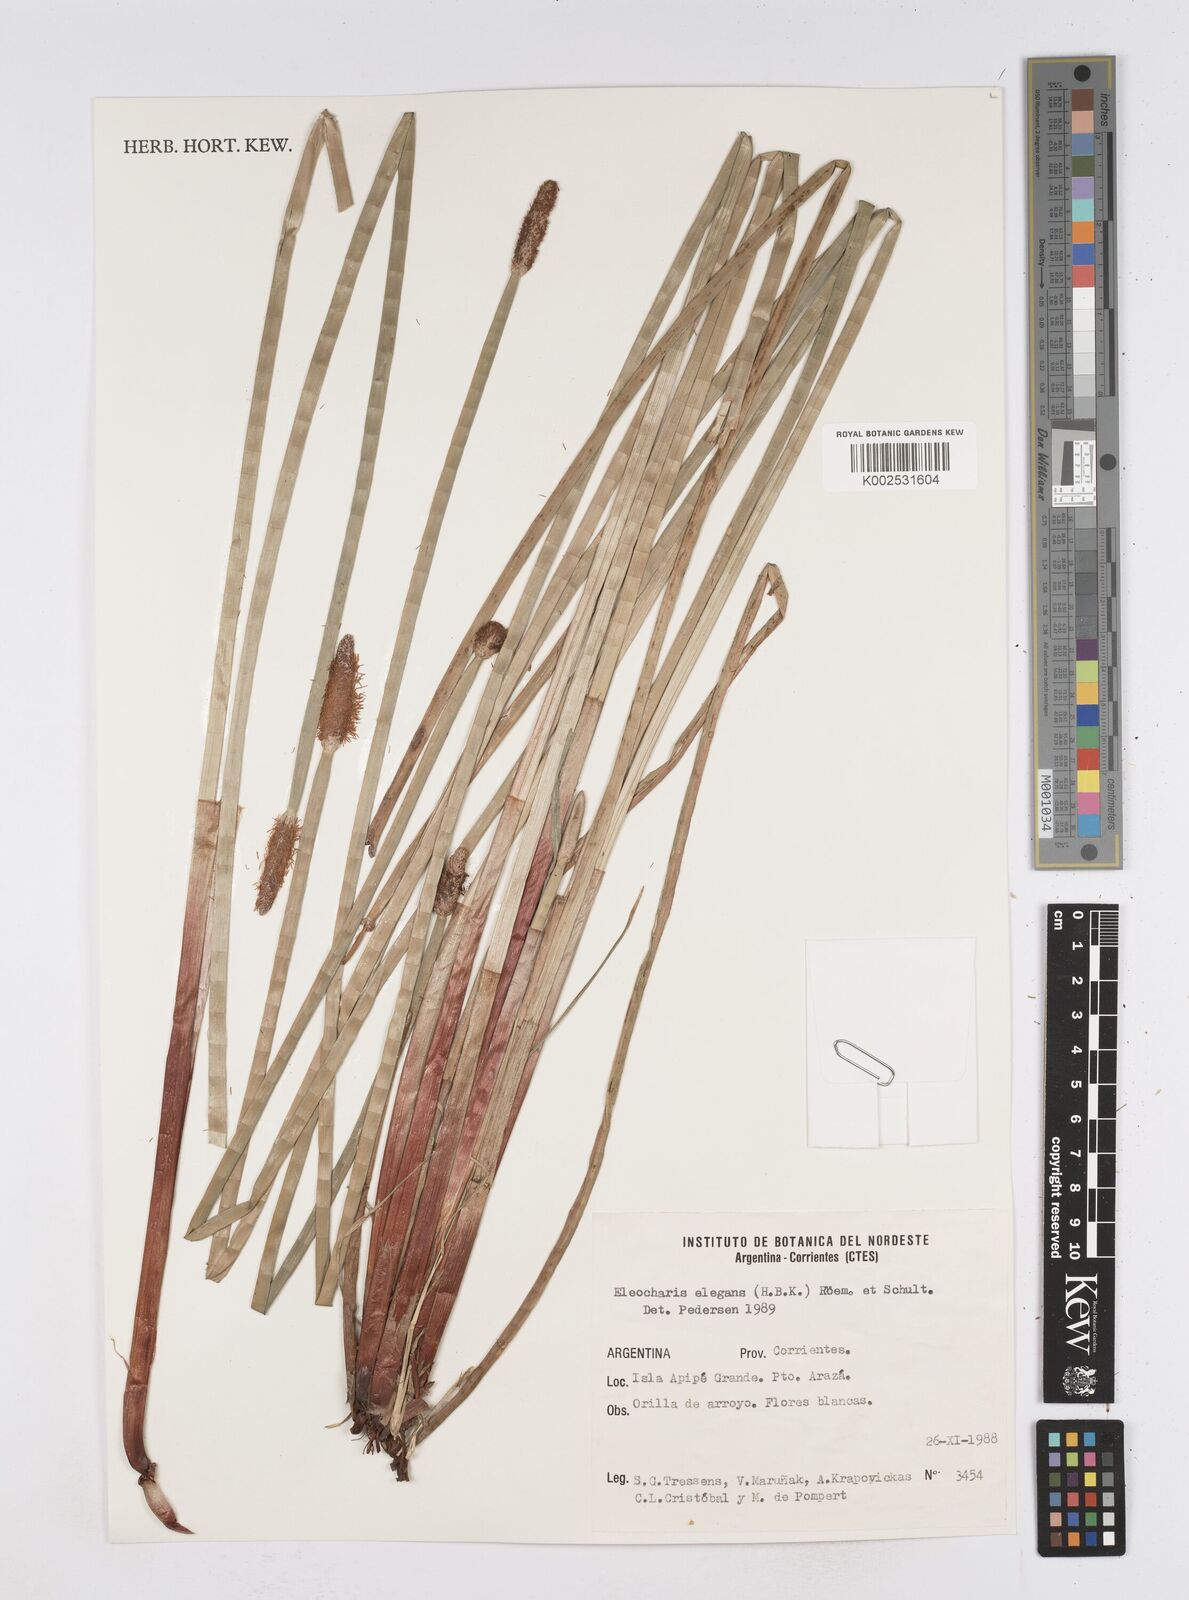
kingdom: Plantae
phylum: Tracheophyta
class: Liliopsida
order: Poales
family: Cyperaceae
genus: Eleocharis
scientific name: Eleocharis elegans
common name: Elegant spike-rush
